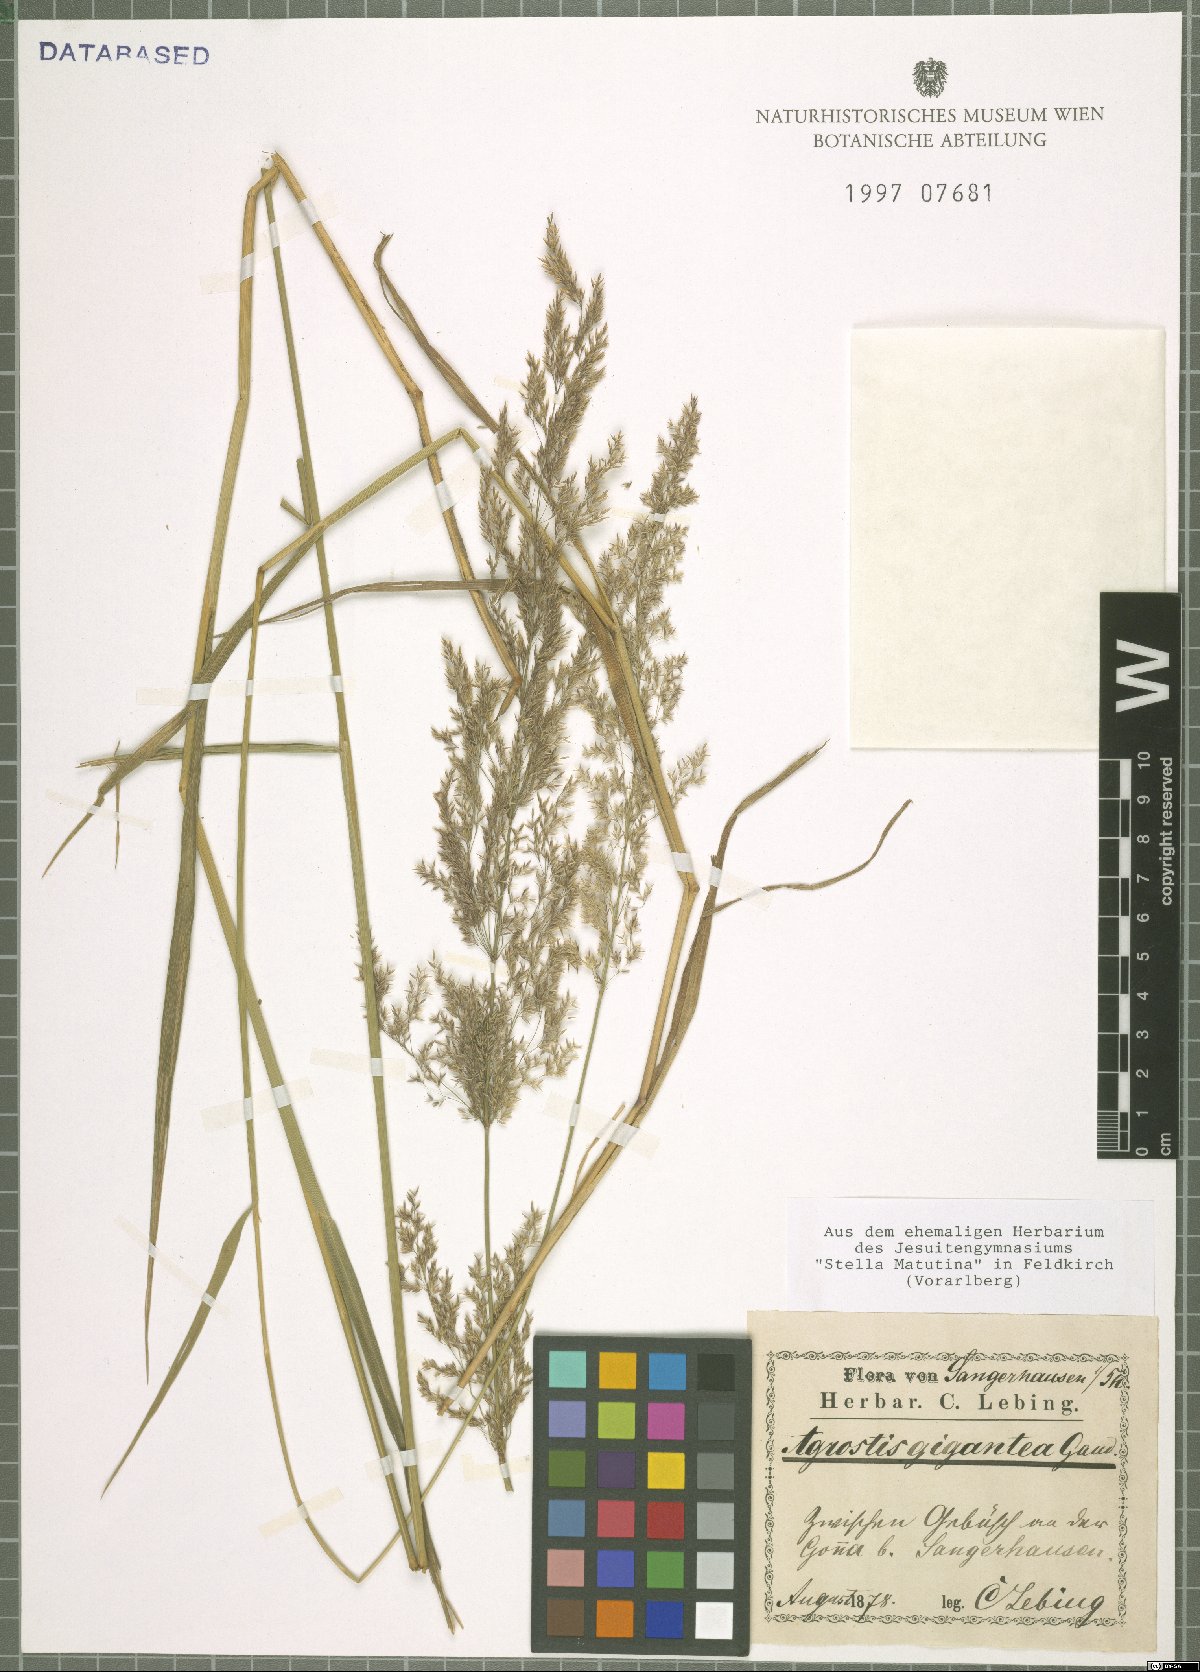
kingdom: Plantae
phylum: Tracheophyta
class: Liliopsida
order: Poales
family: Poaceae
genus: Agrostis
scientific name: Agrostis gigantea
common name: Black bent
